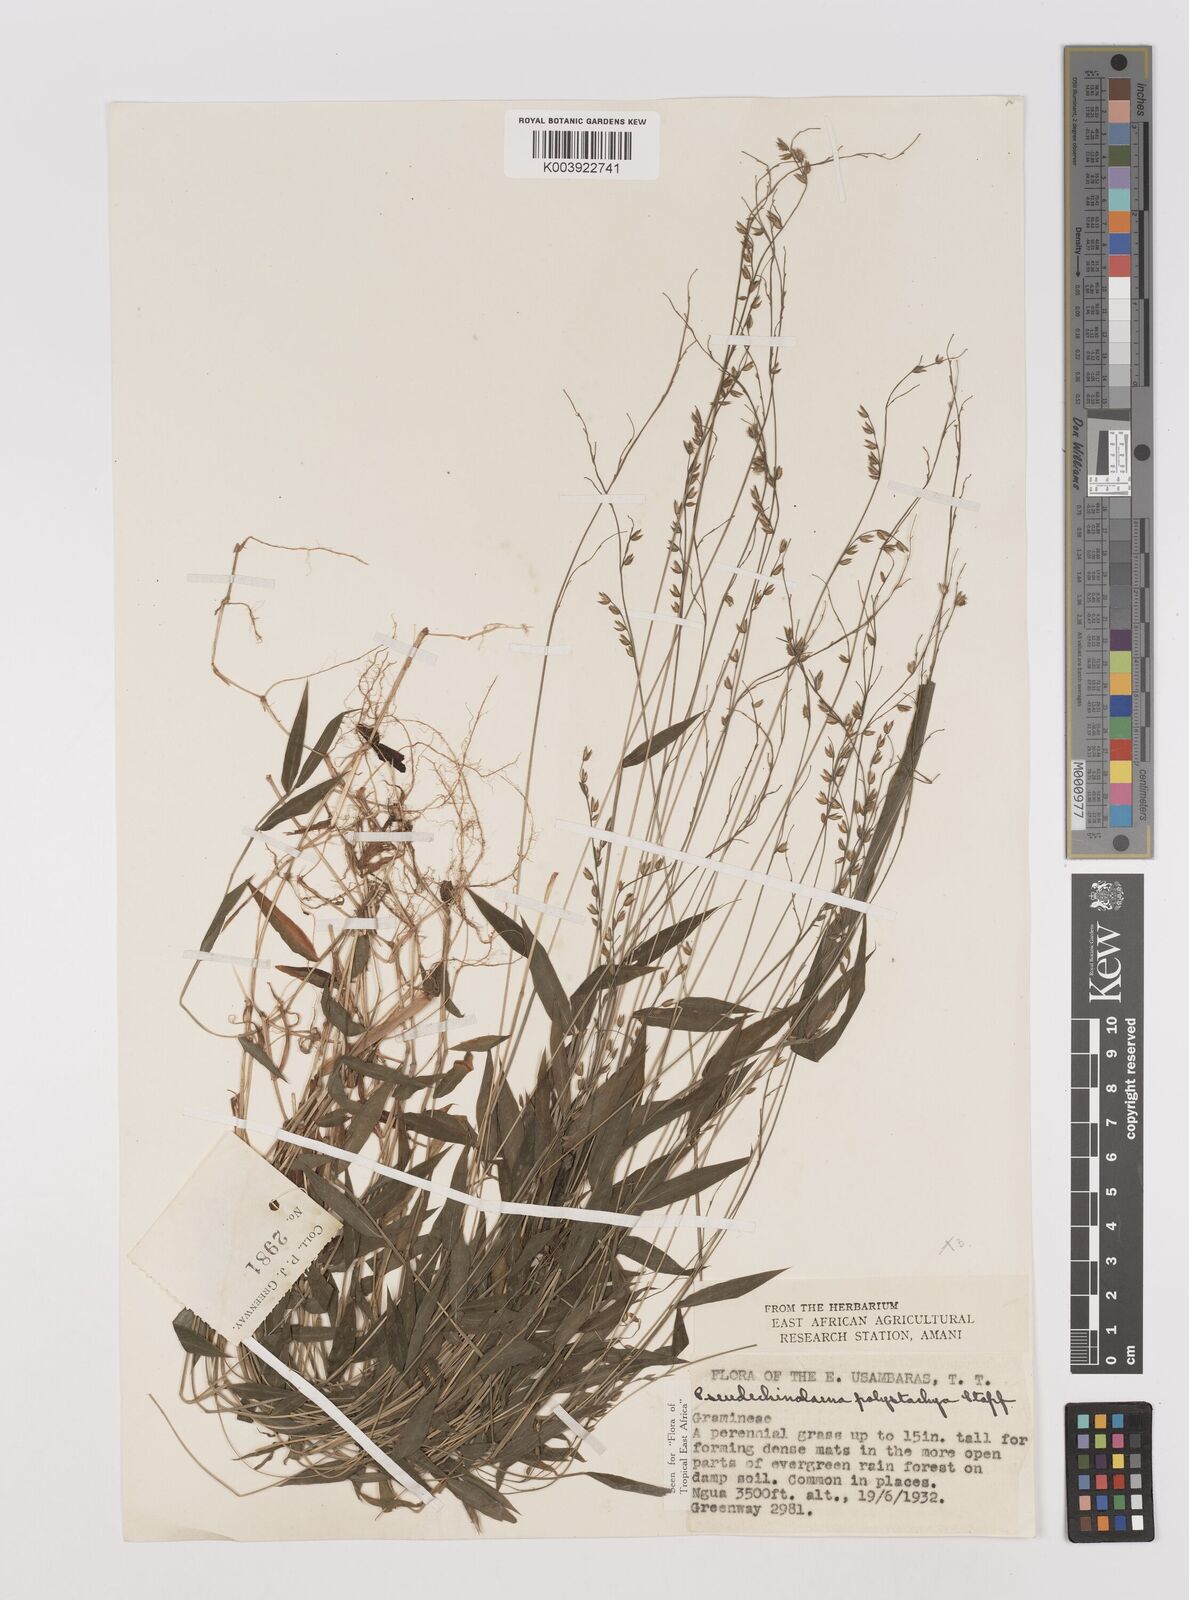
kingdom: Plantae
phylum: Tracheophyta
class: Liliopsida
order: Poales
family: Poaceae
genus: Pseudechinolaena
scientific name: Pseudechinolaena polystachya
